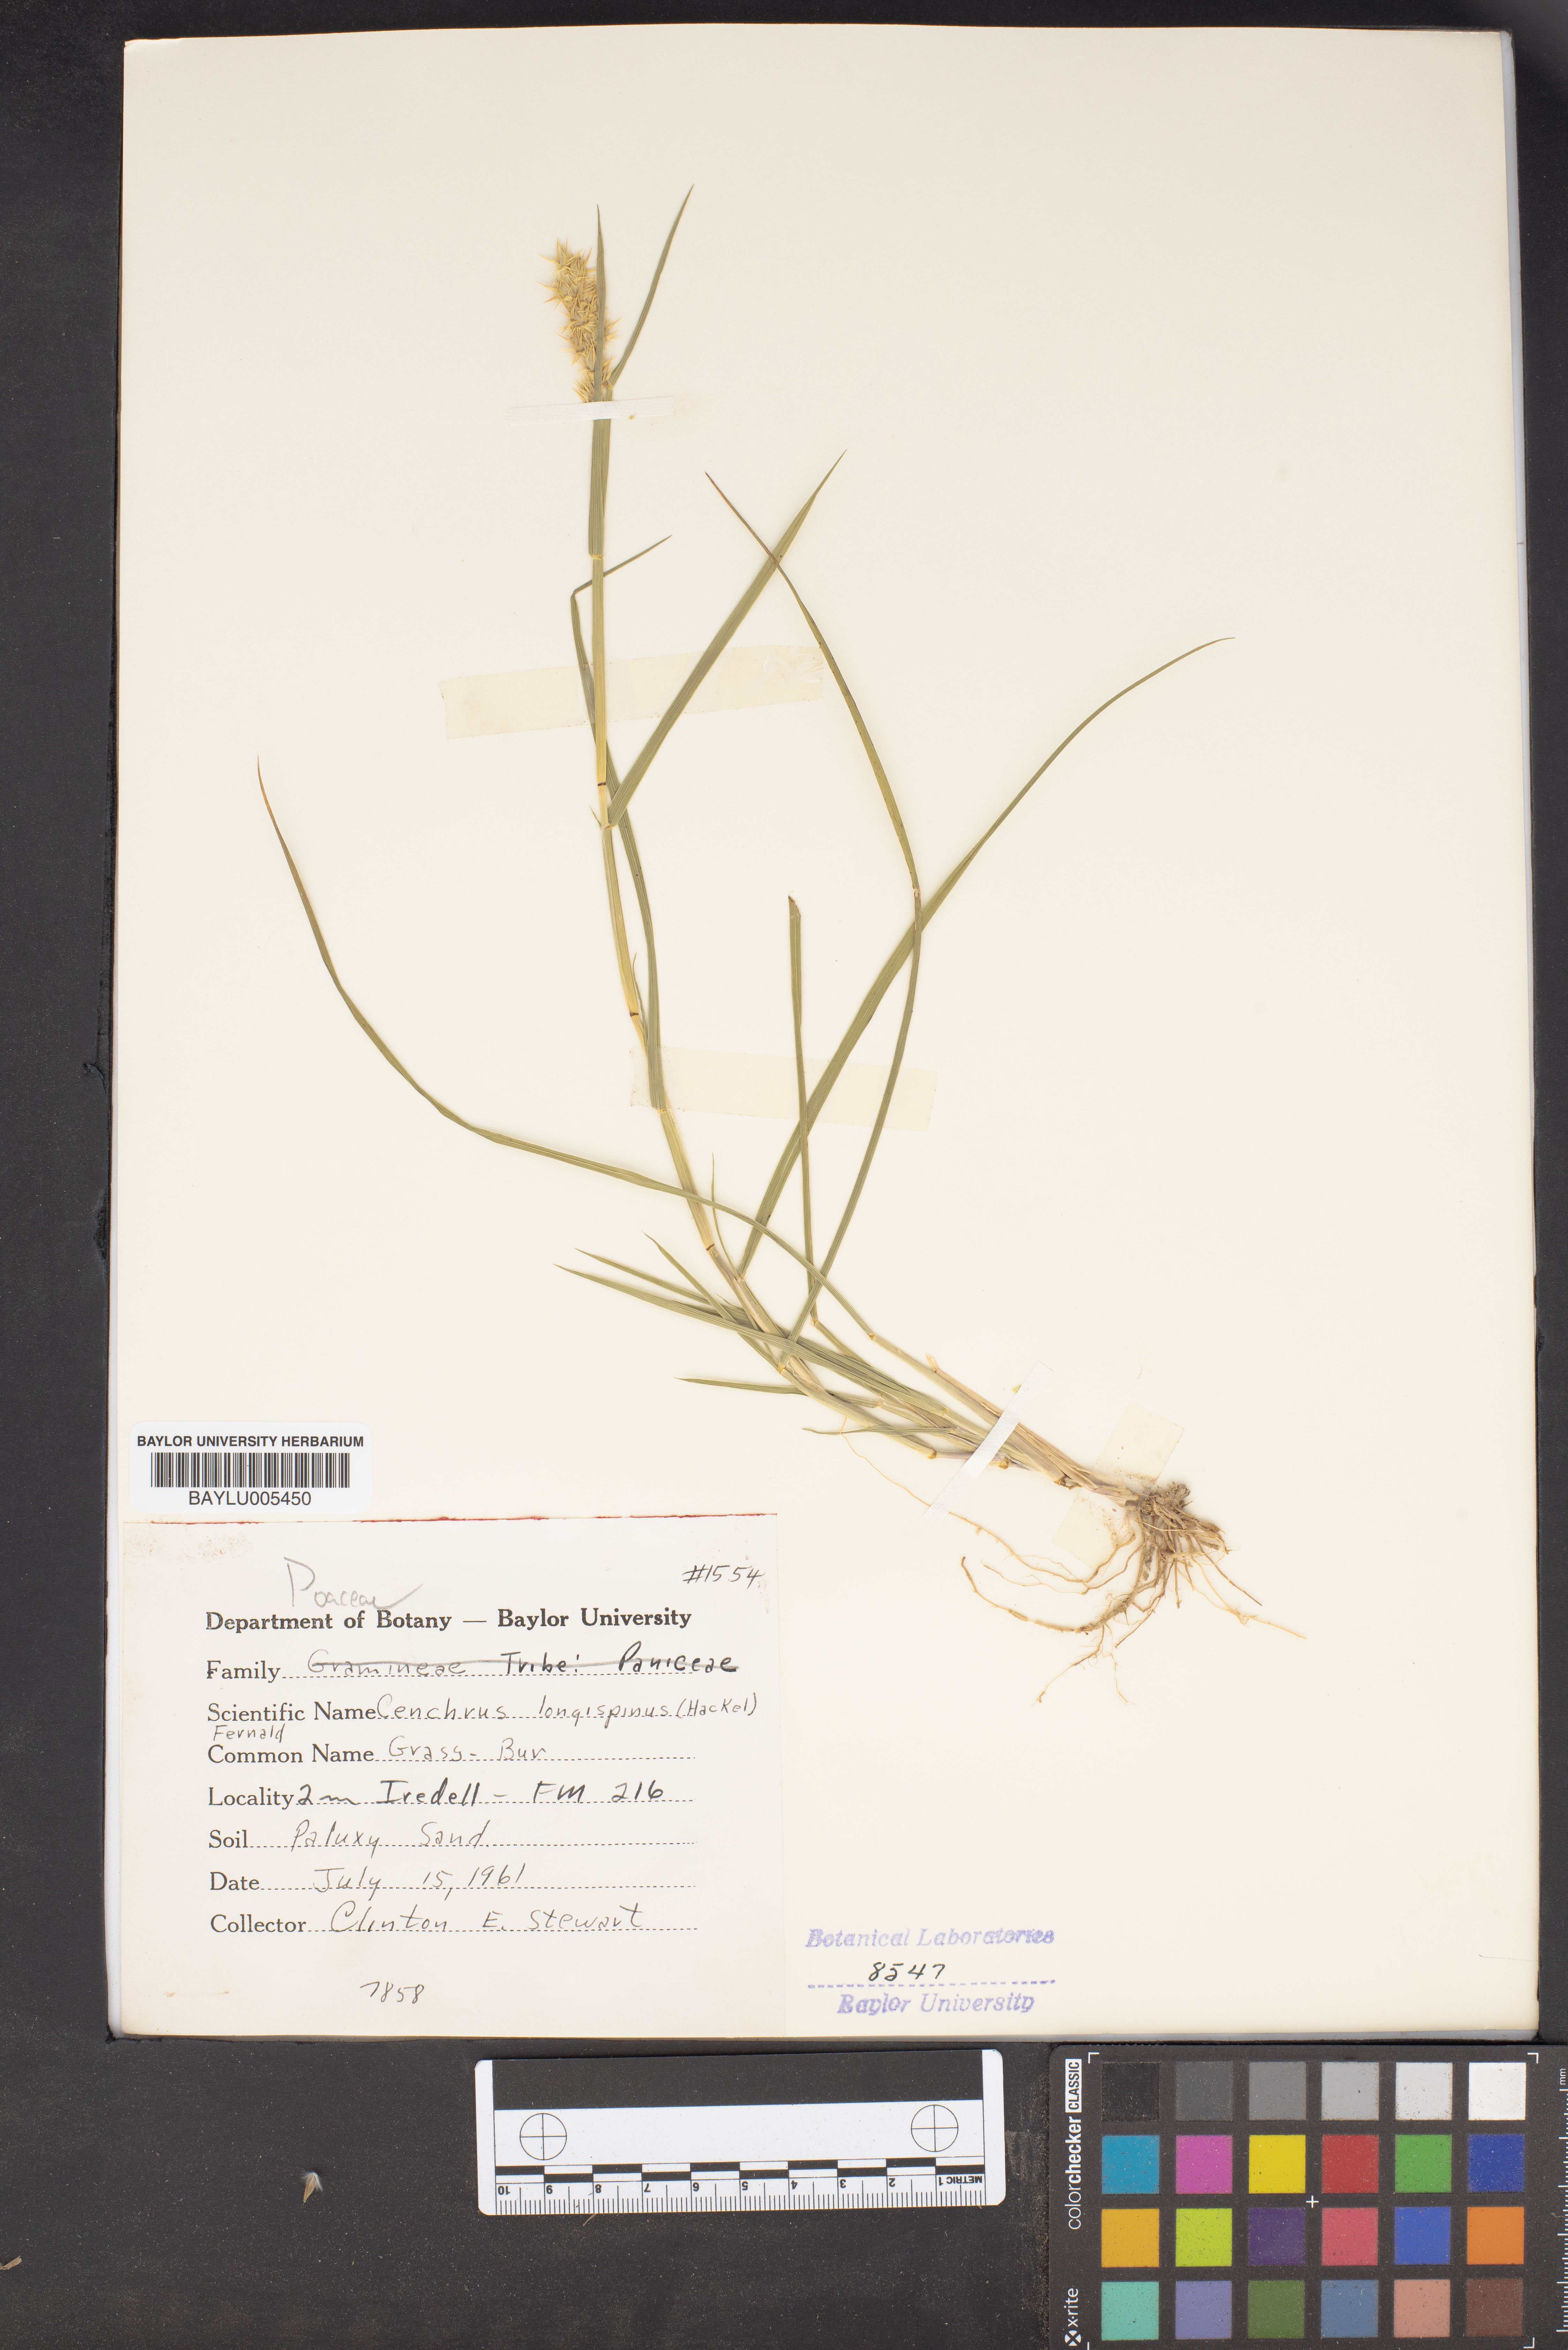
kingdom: Plantae
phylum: Tracheophyta
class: Liliopsida
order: Poales
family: Poaceae
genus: Cenchrus
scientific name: Cenchrus longispinus
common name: Mat sandbur
